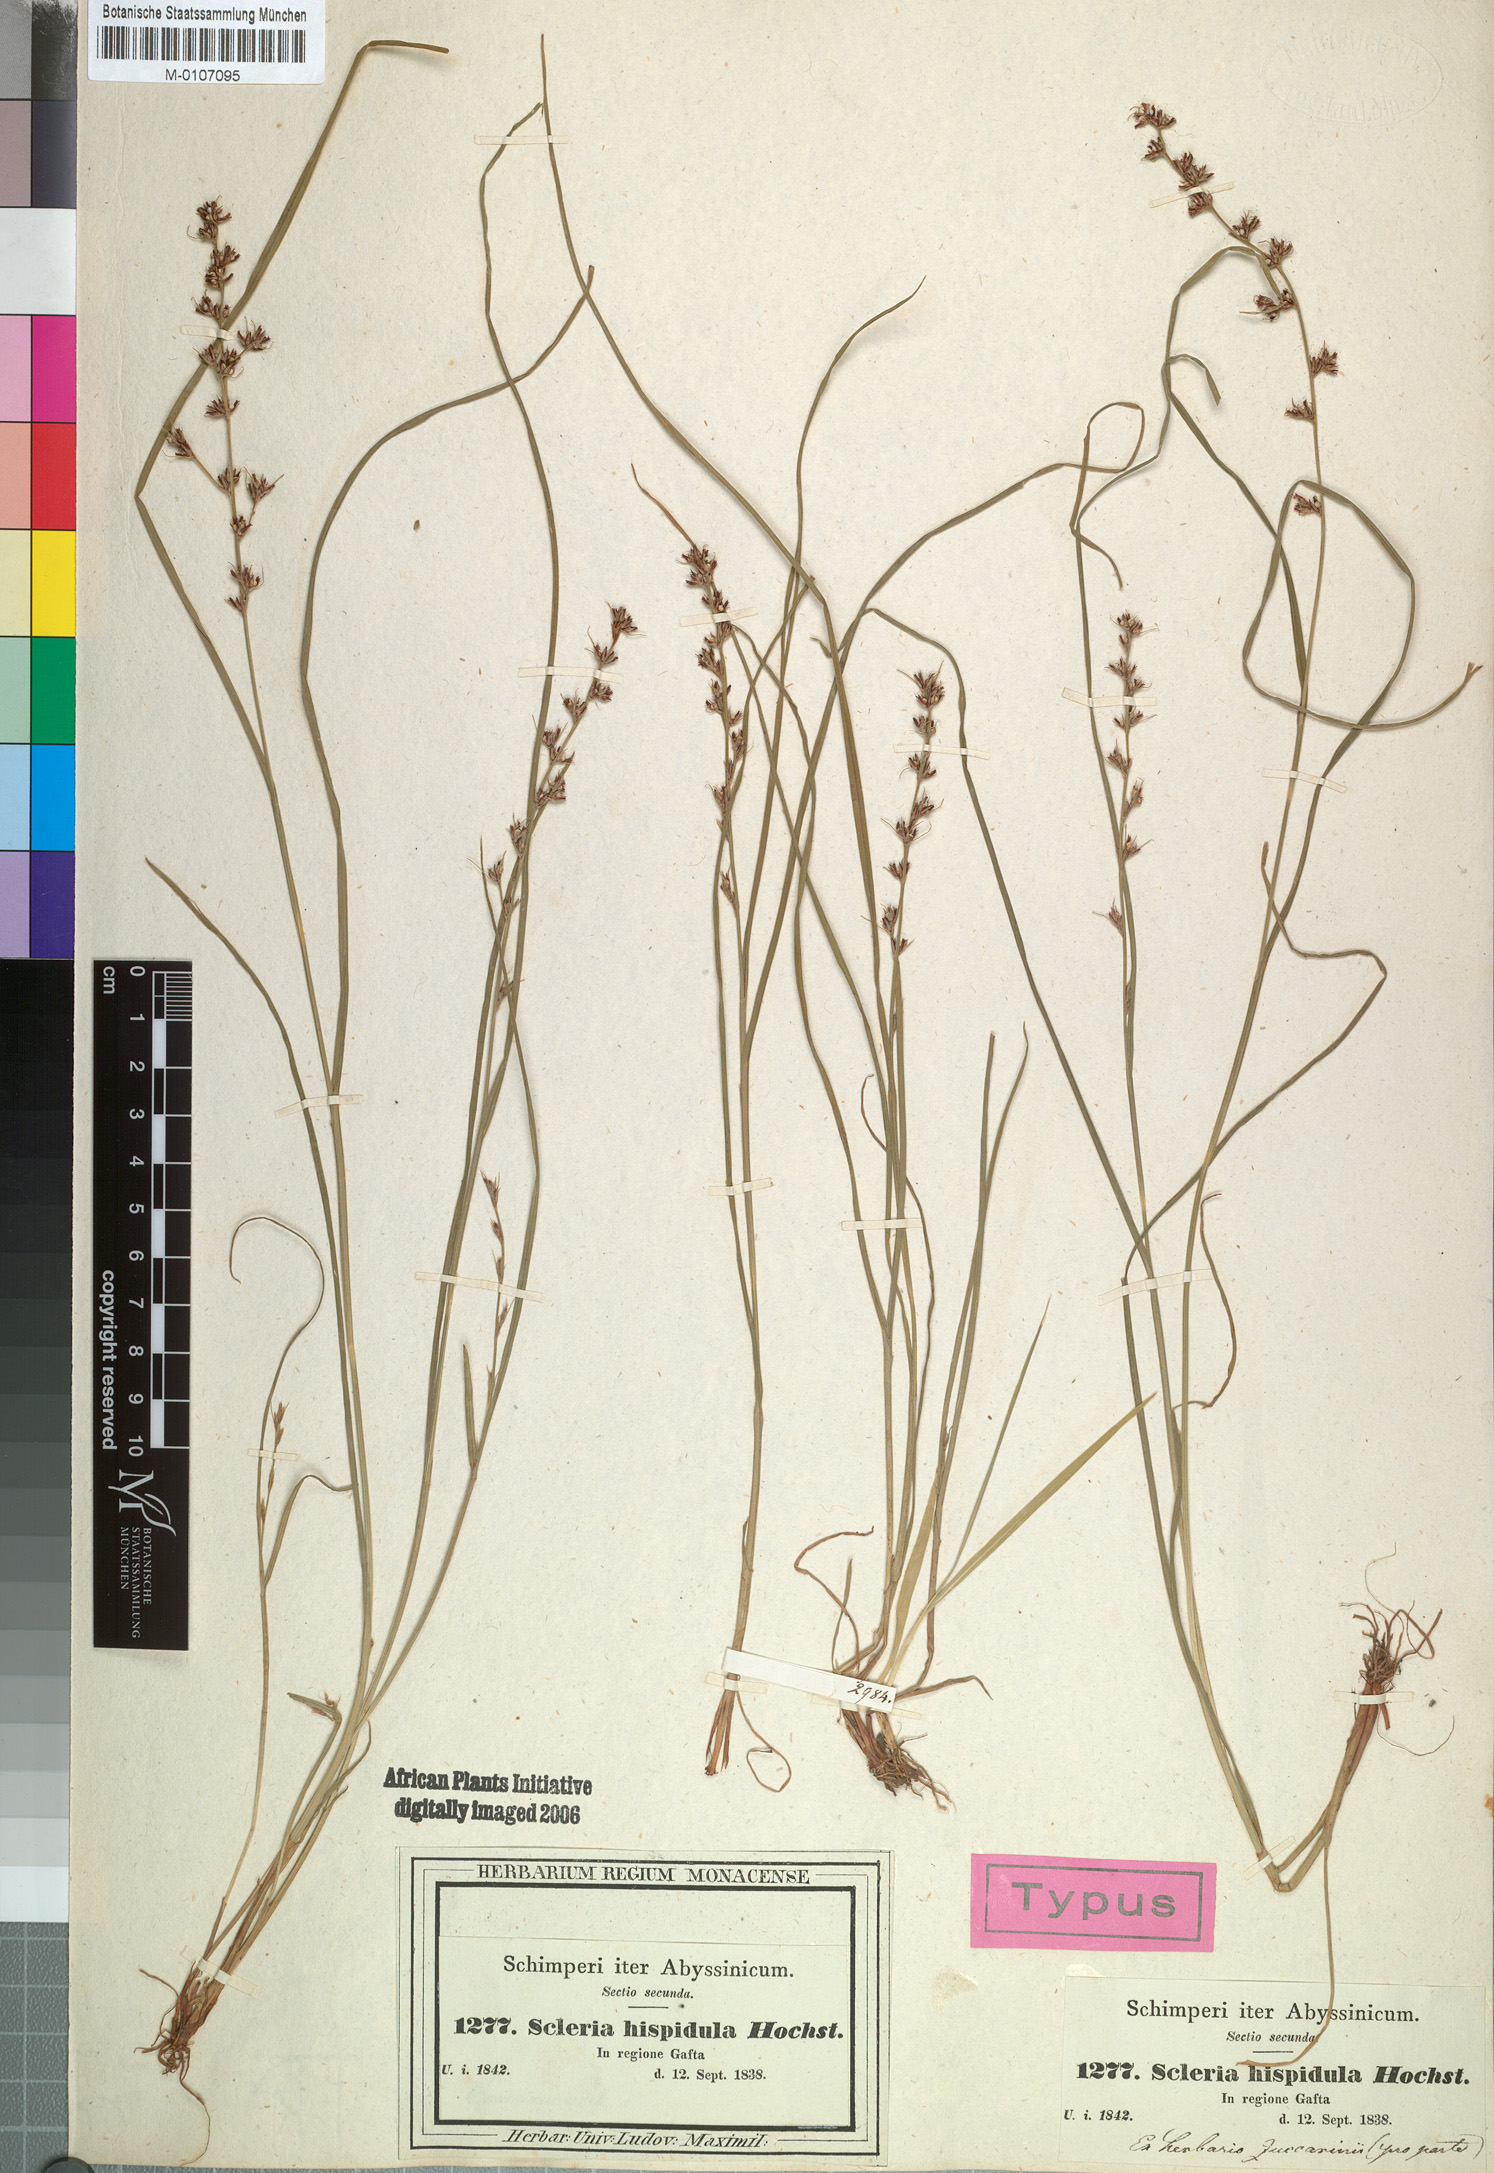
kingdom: Plantae
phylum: Tracheophyta
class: Liliopsida
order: Poales
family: Cyperaceae
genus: Scleria
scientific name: Scleria hispidula
